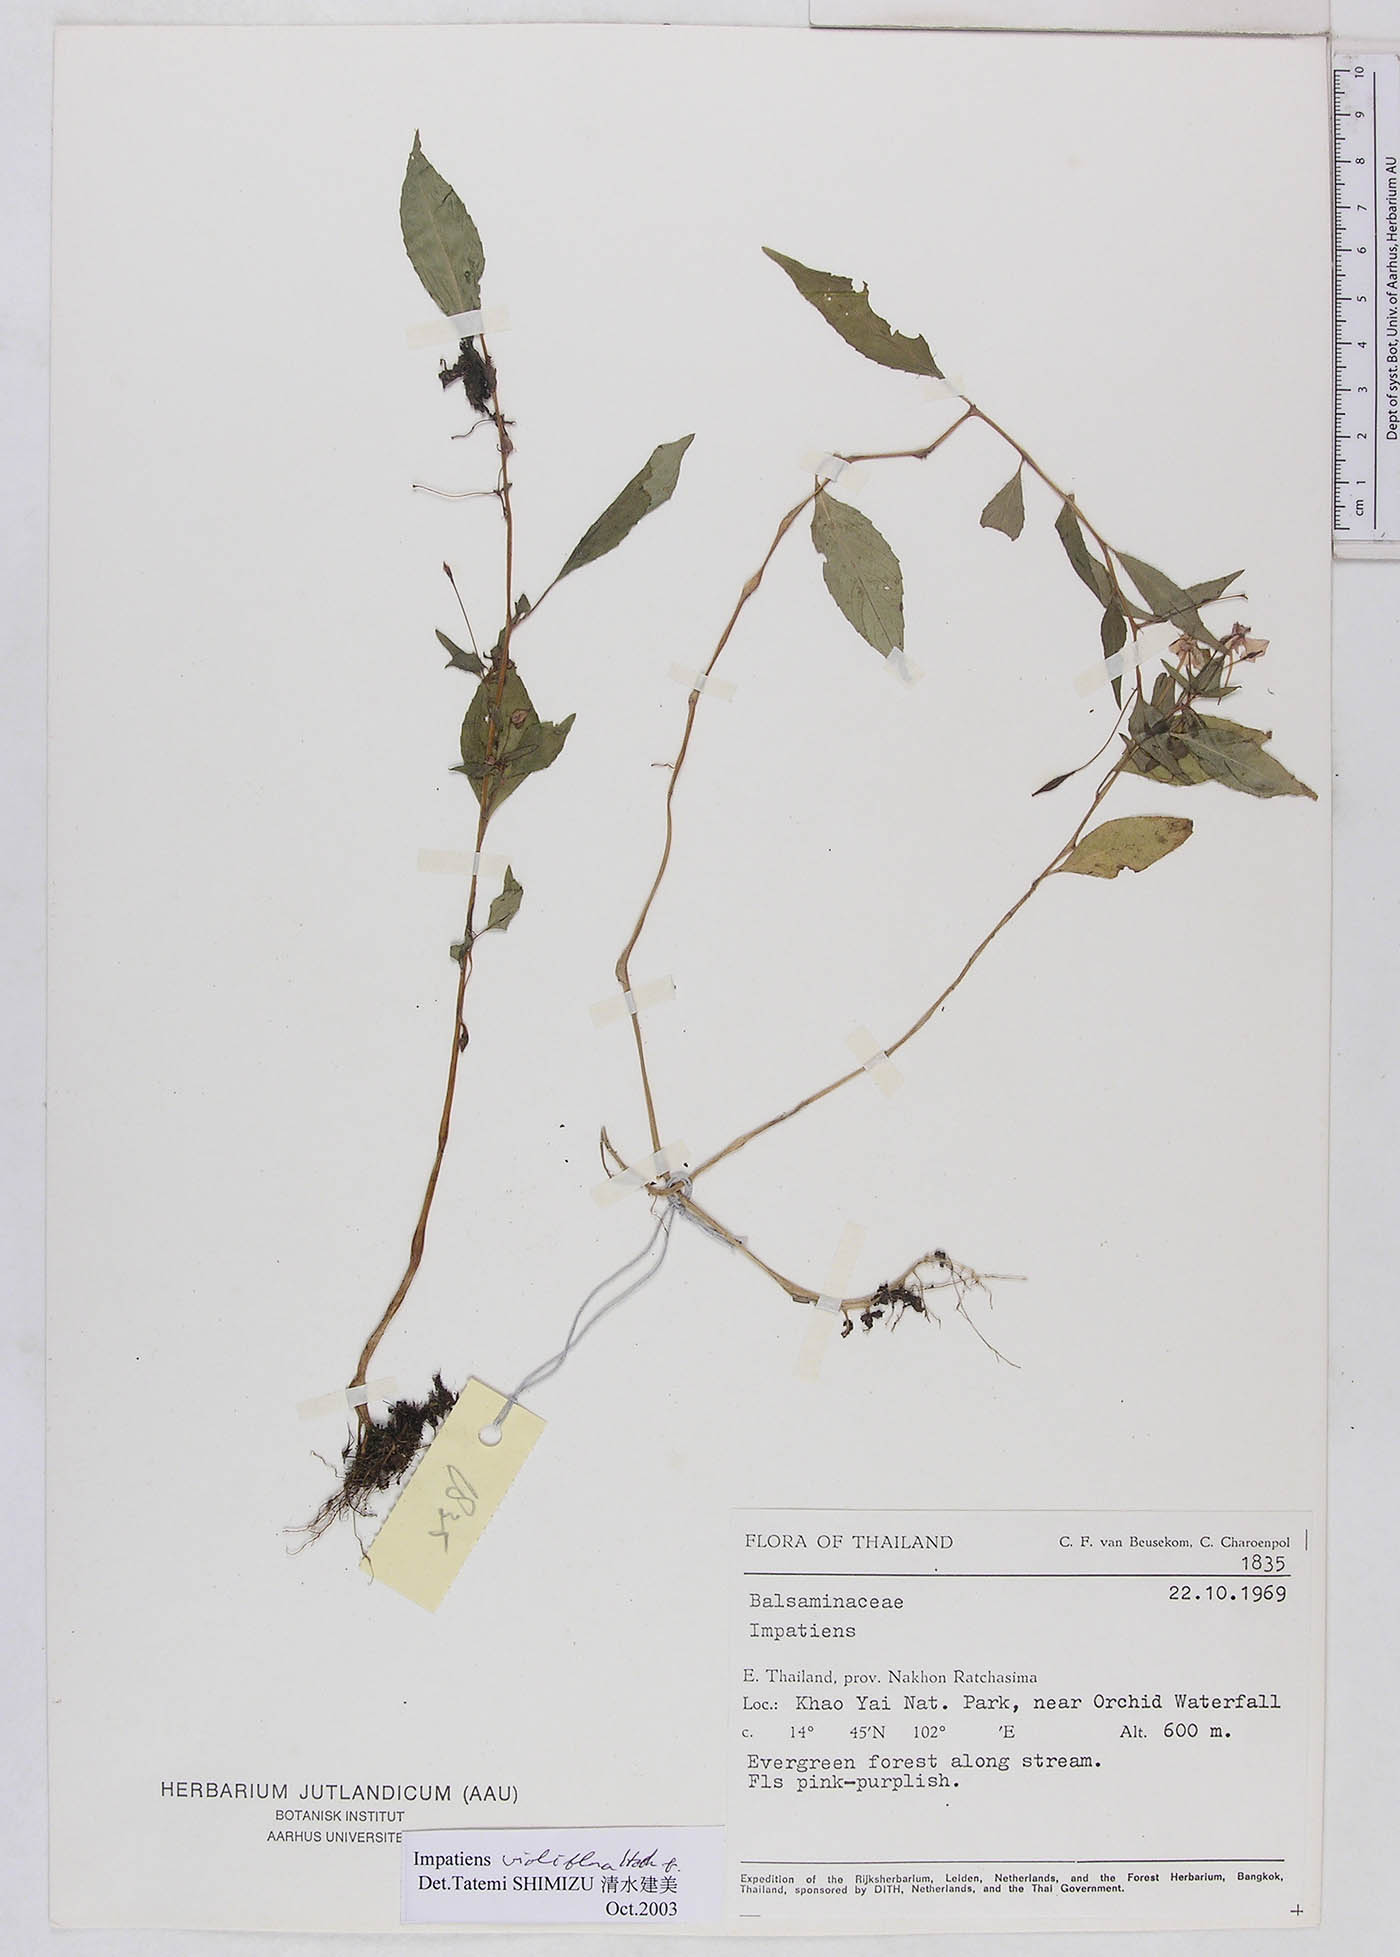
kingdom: Plantae
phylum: Tracheophyta
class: Magnoliopsida
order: Ericales
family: Balsaminaceae
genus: Impatiens
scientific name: Impatiens violiflora
